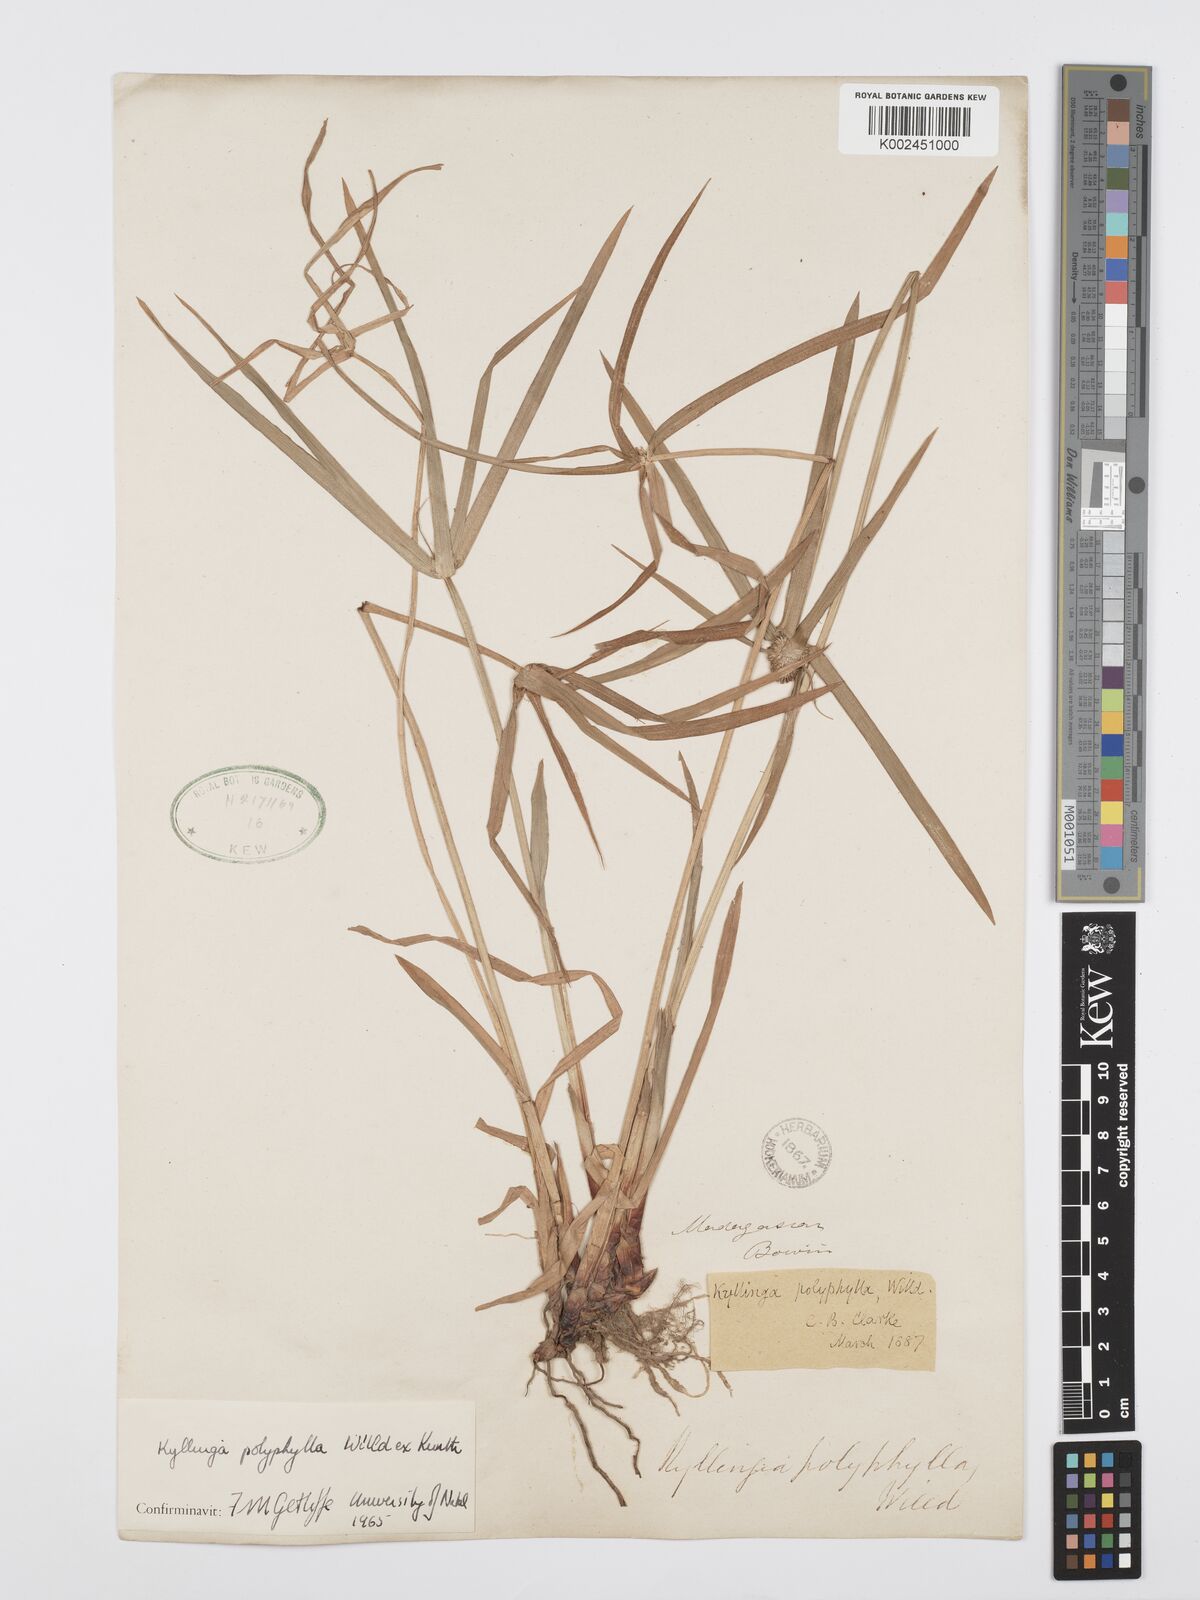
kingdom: Plantae
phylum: Tracheophyta
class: Liliopsida
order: Poales
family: Cyperaceae
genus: Cyperus
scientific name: Cyperus
